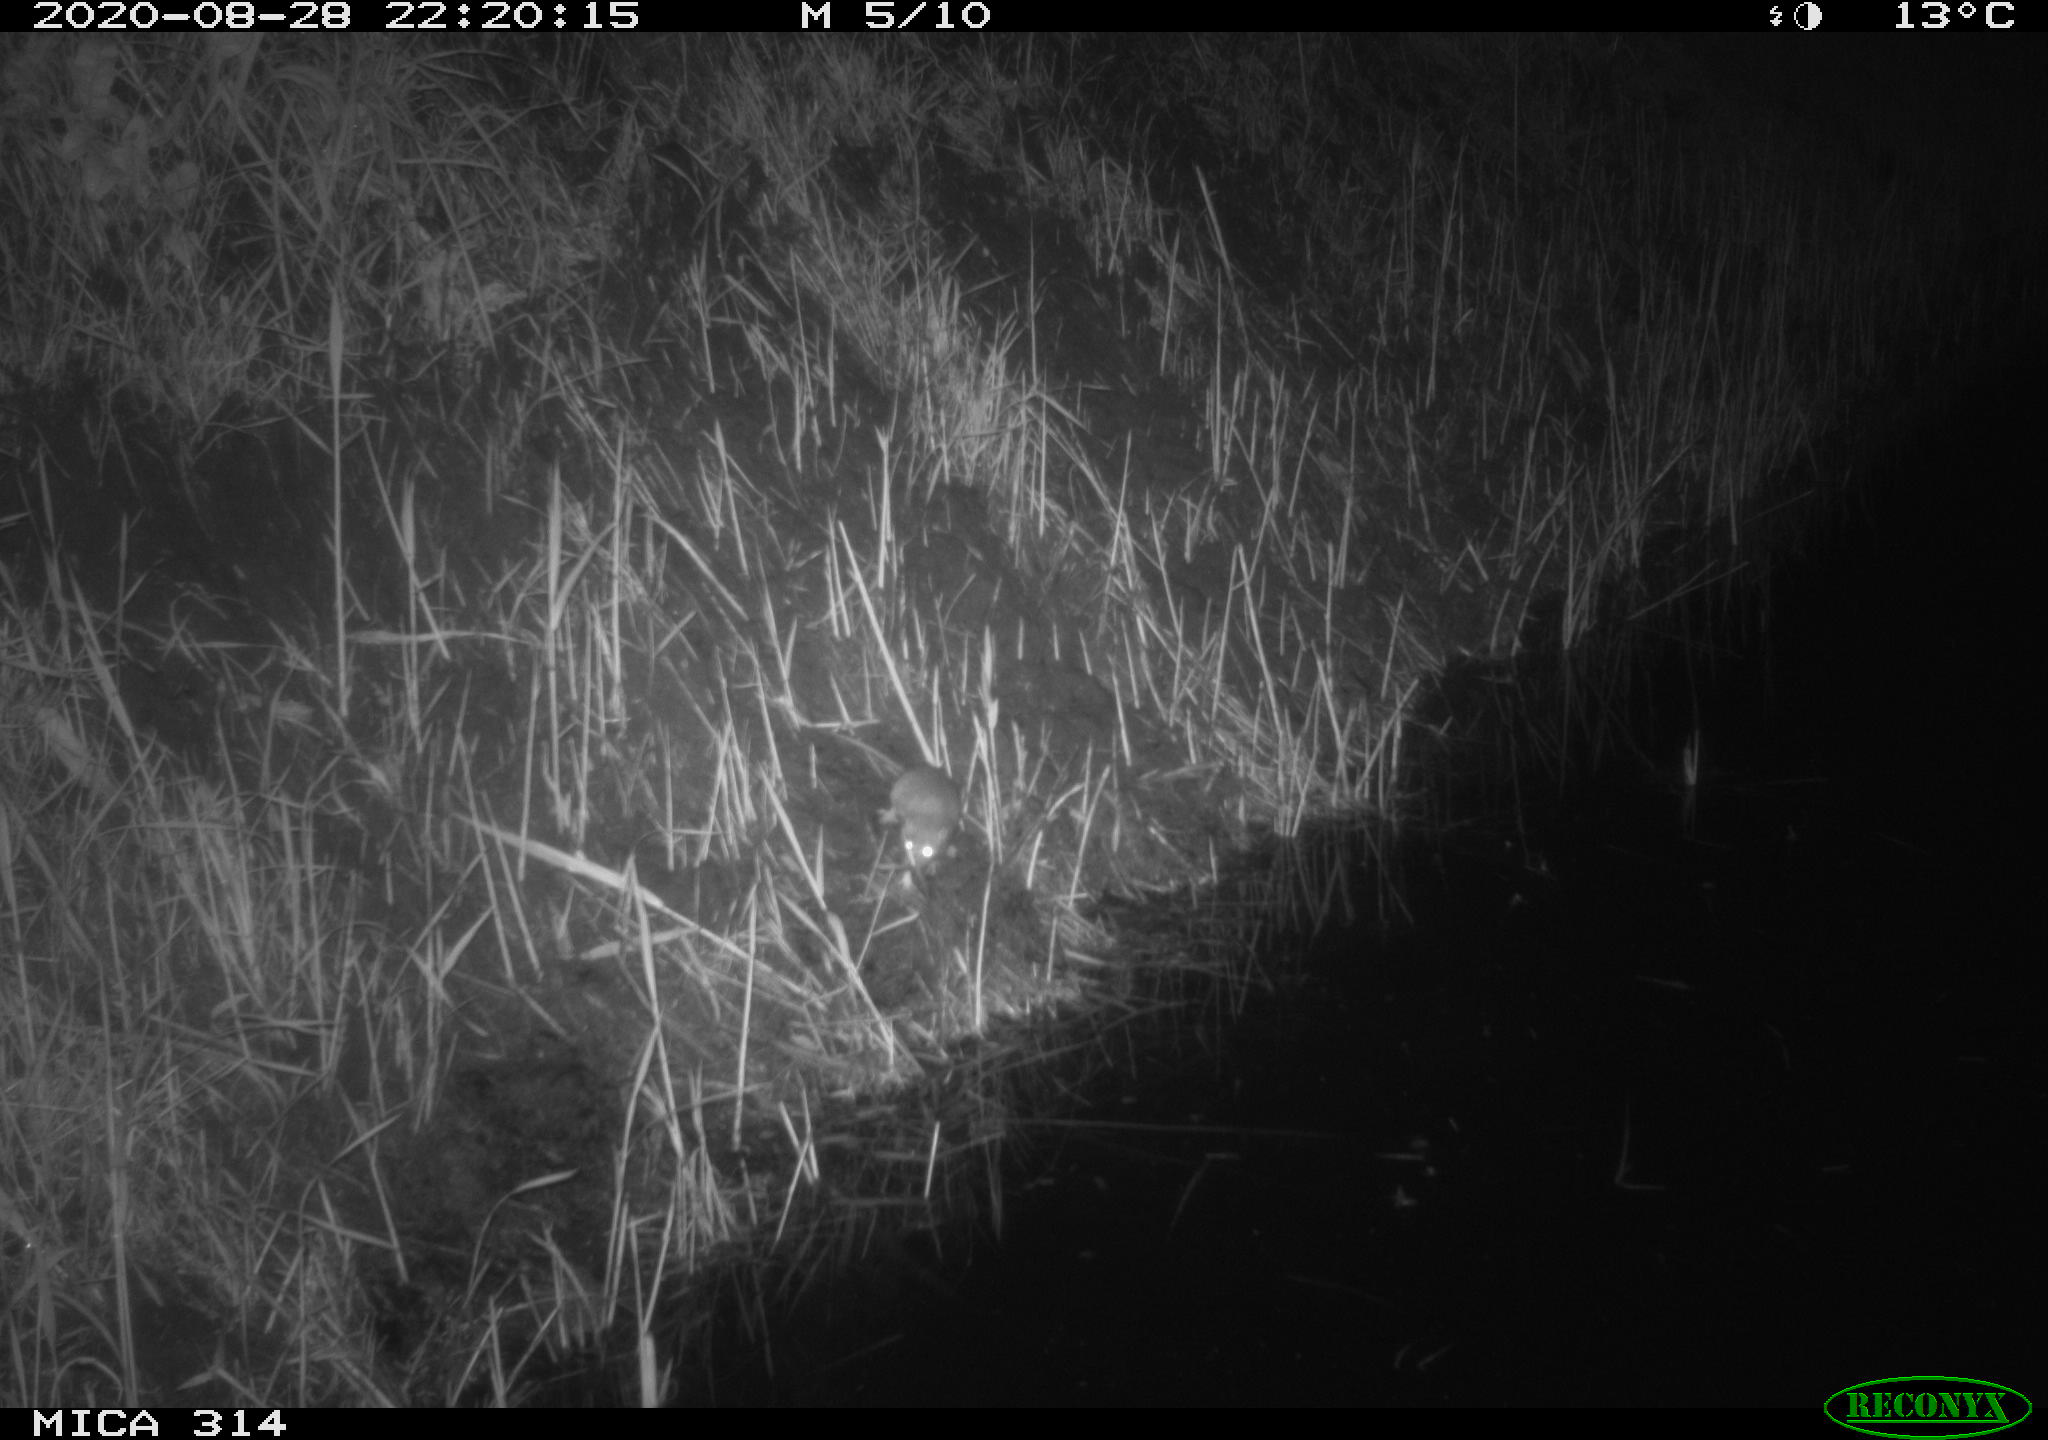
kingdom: Animalia
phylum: Chordata
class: Mammalia
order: Rodentia
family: Muridae
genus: Rattus
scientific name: Rattus norvegicus
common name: Brown rat
